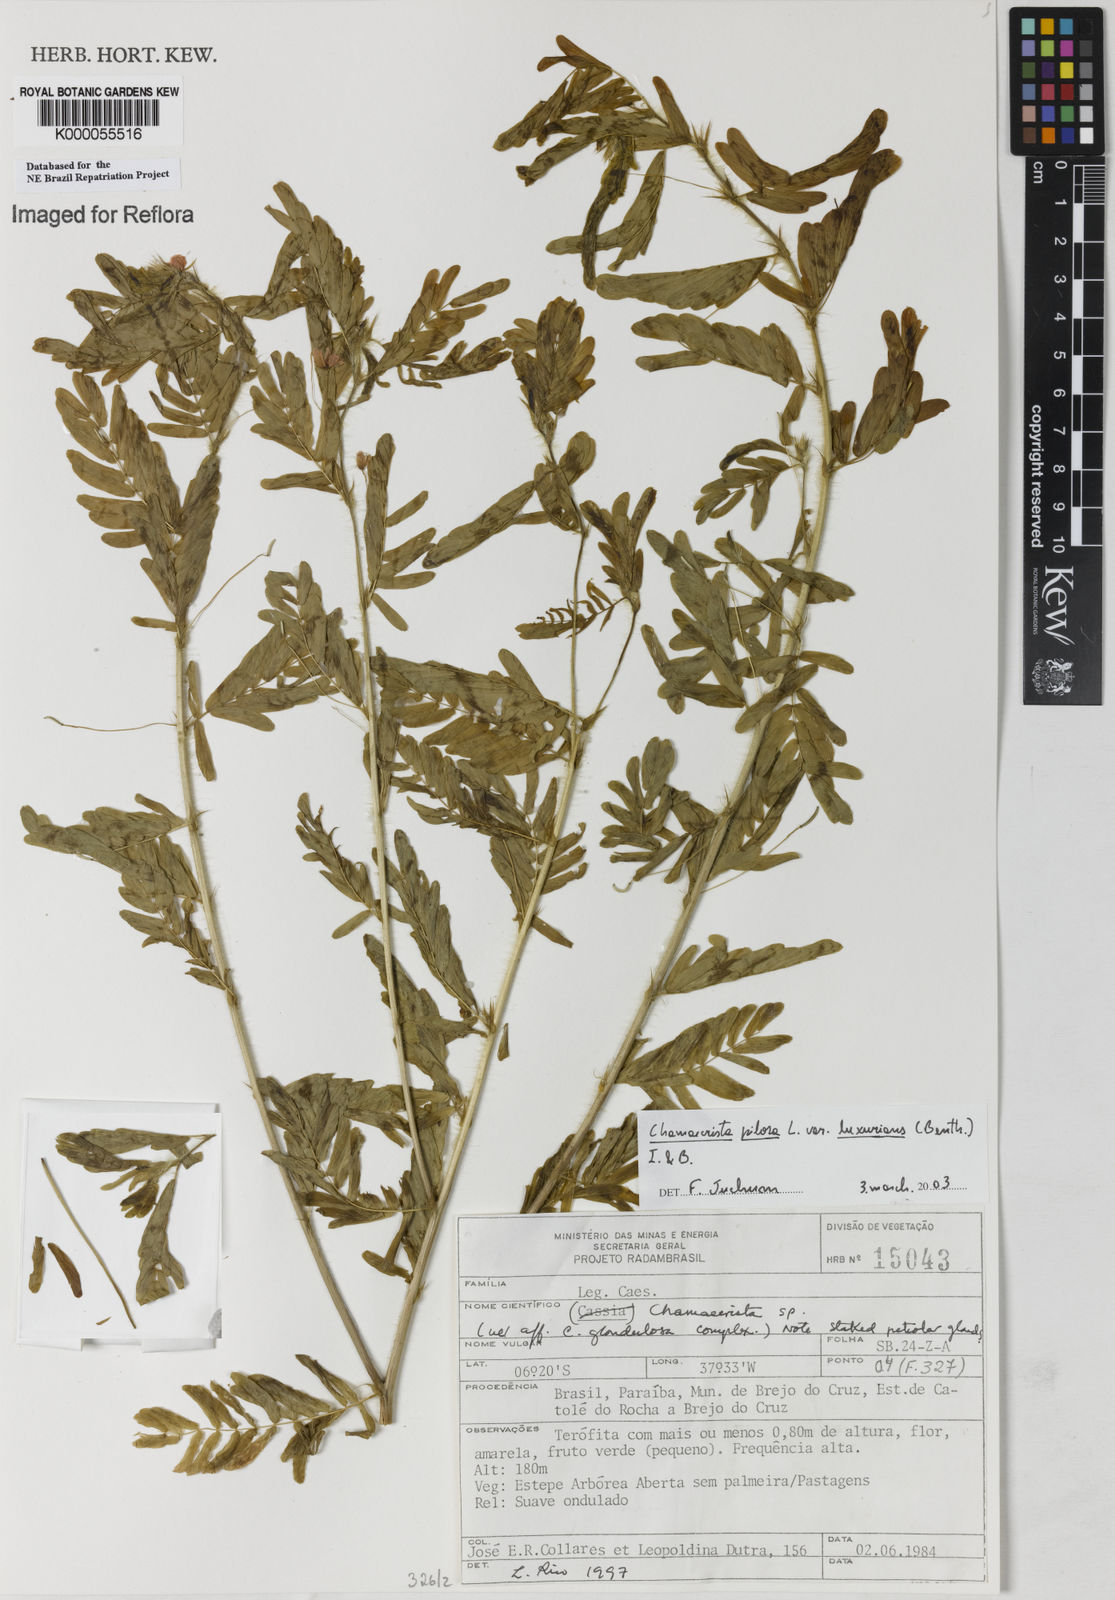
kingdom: Plantae
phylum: Tracheophyta
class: Magnoliopsida
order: Fabales
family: Fabaceae
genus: Chamaecrista
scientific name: Chamaecrista pilosa
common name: Hairy sensitive pea
